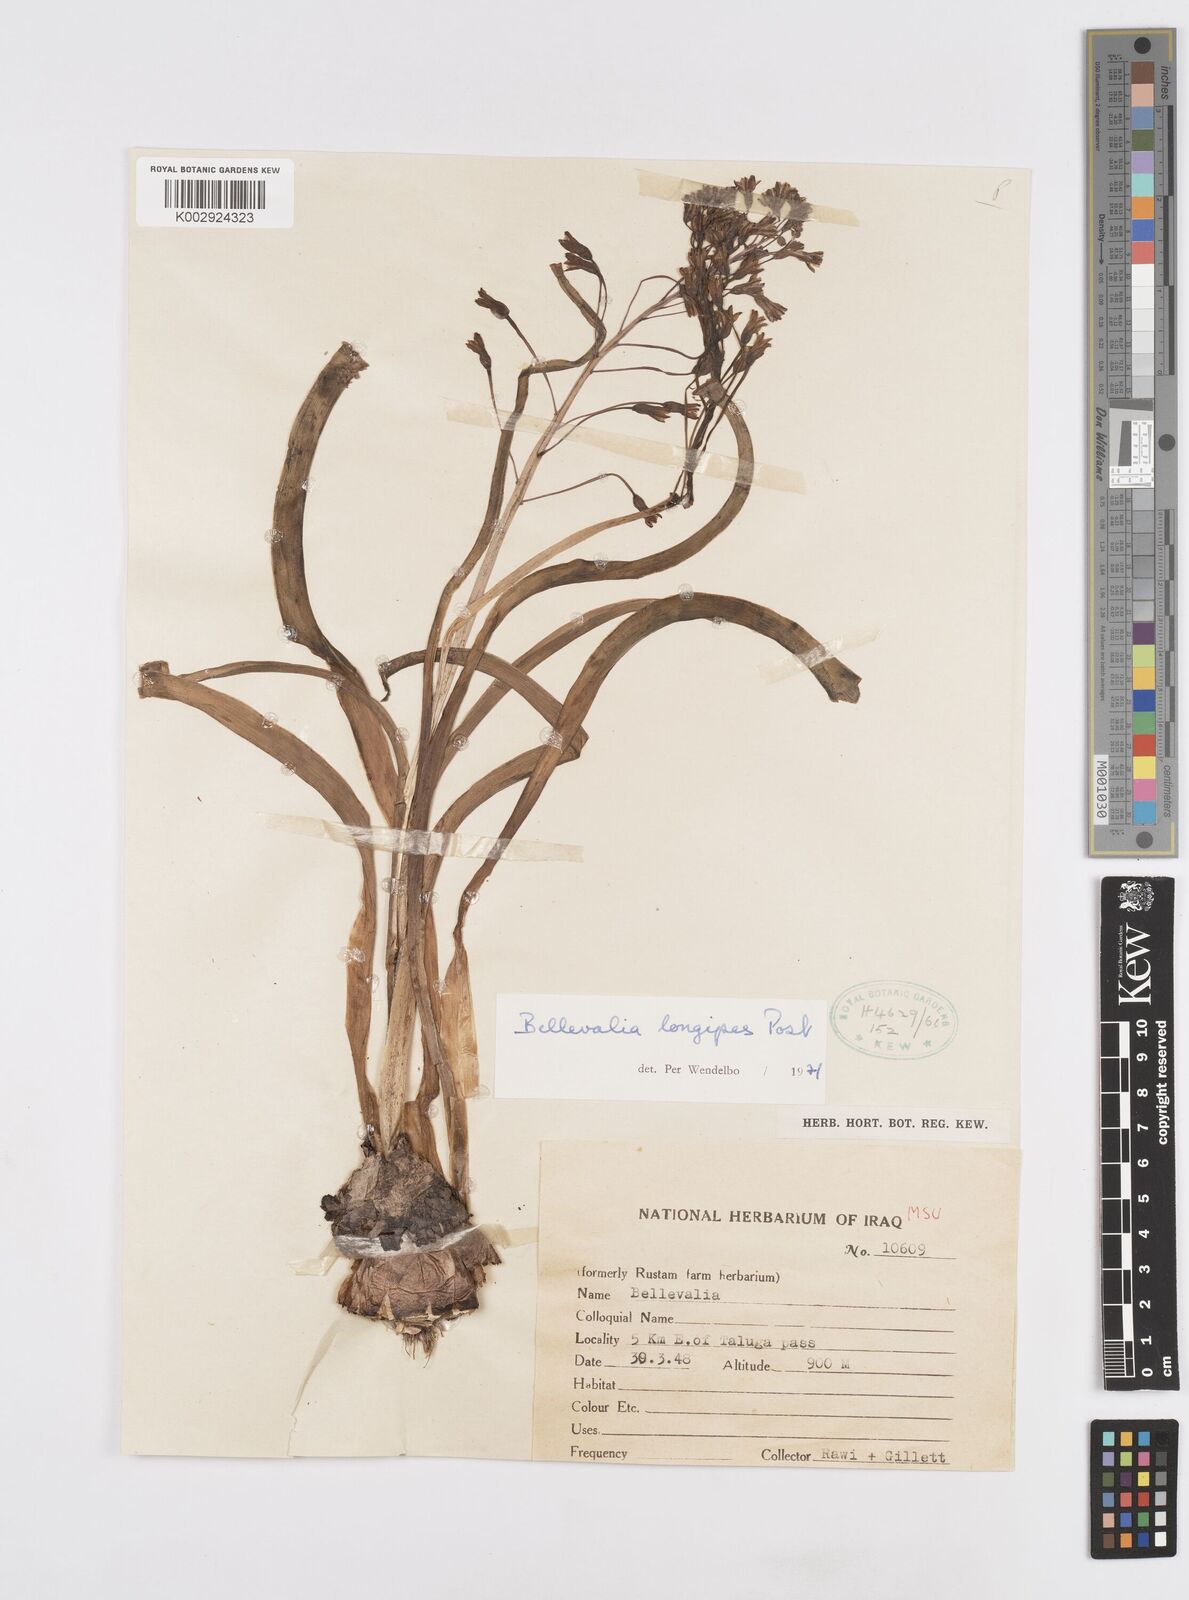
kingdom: Plantae
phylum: Tracheophyta
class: Liliopsida
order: Asparagales
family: Asparagaceae
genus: Bellevalia
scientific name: Bellevalia longipes
